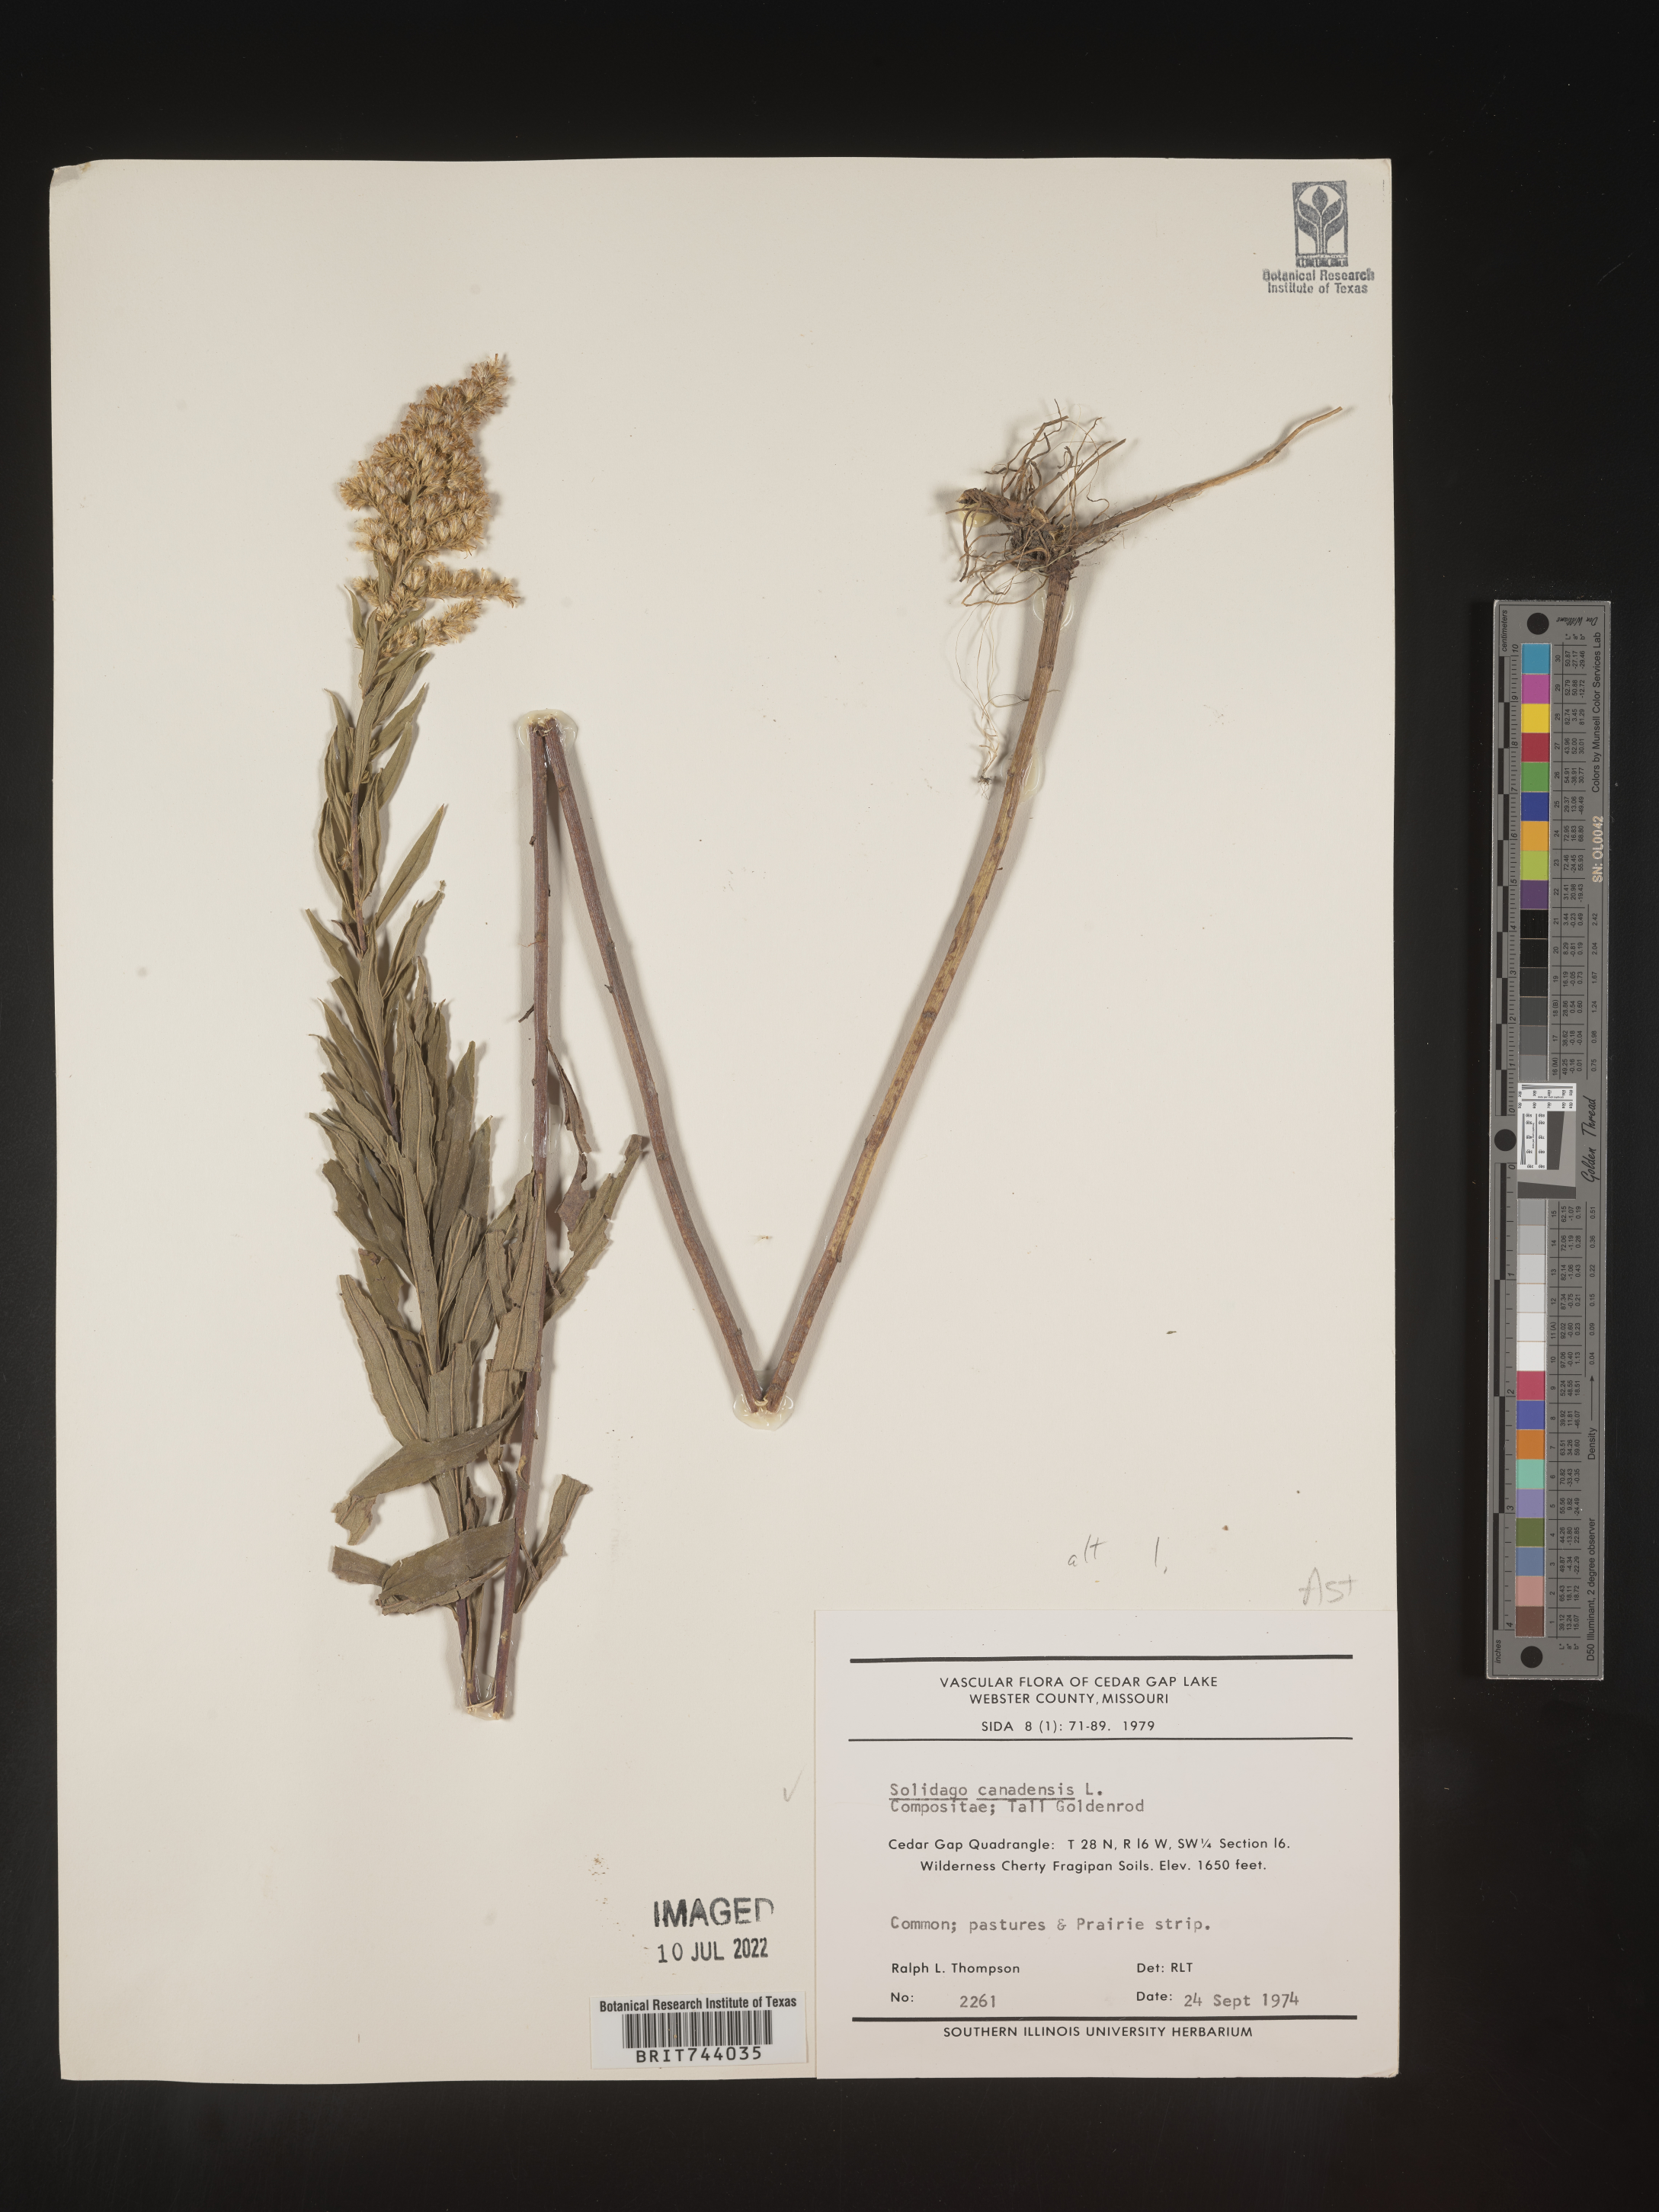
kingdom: Plantae
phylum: Tracheophyta
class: Magnoliopsida
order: Asterales
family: Asteraceae
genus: Solidago
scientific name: Solidago altissima
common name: Late goldenrod
